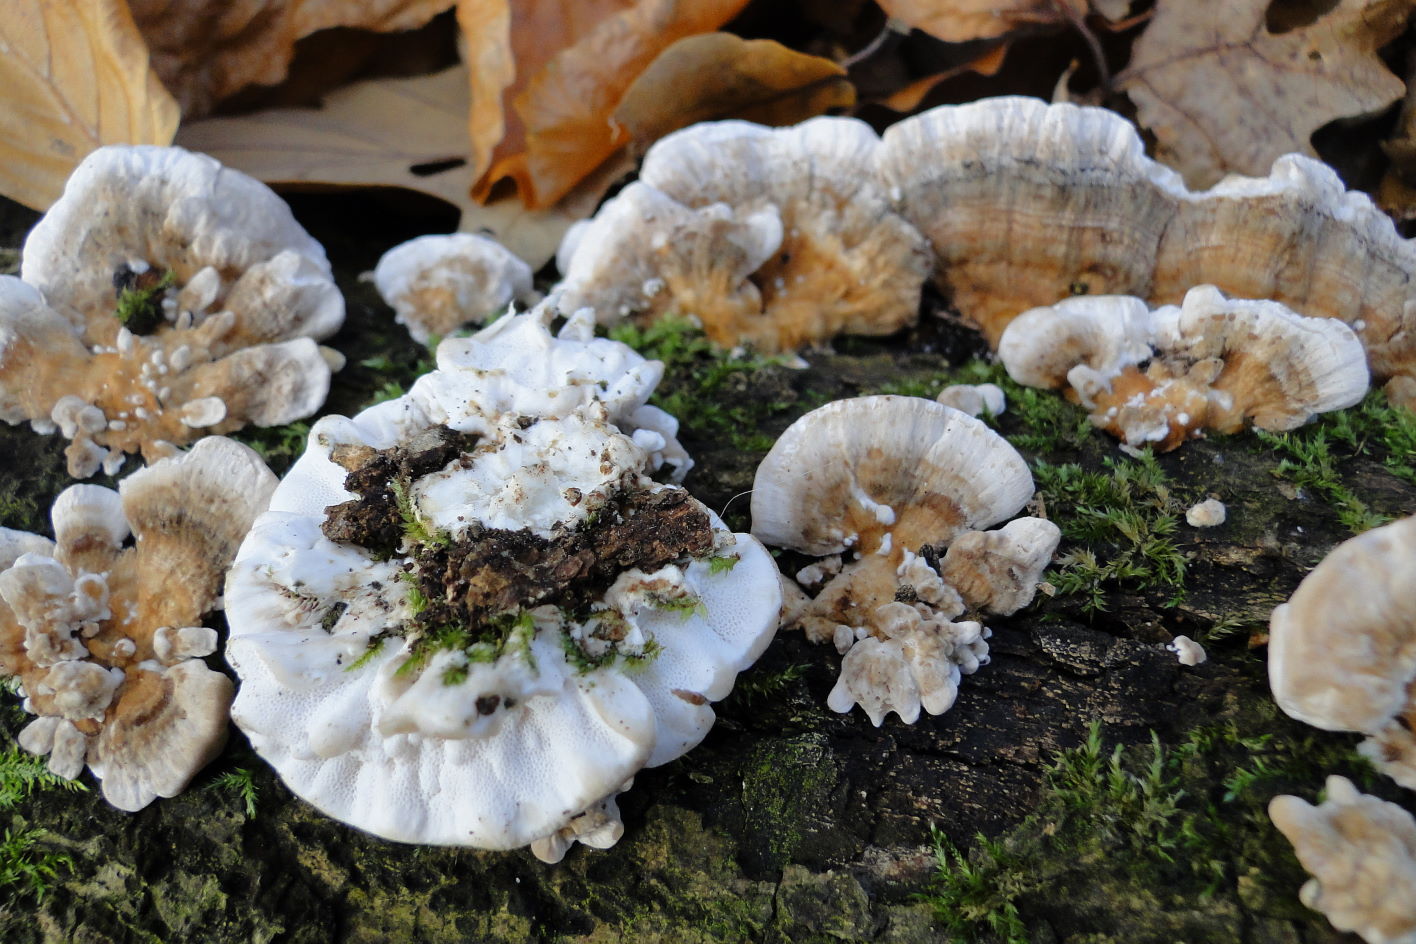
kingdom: Fungi
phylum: Basidiomycota
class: Agaricomycetes
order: Polyporales
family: Polyporaceae
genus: Trametes
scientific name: Trametes versicolor
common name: broget læderporesvamp
